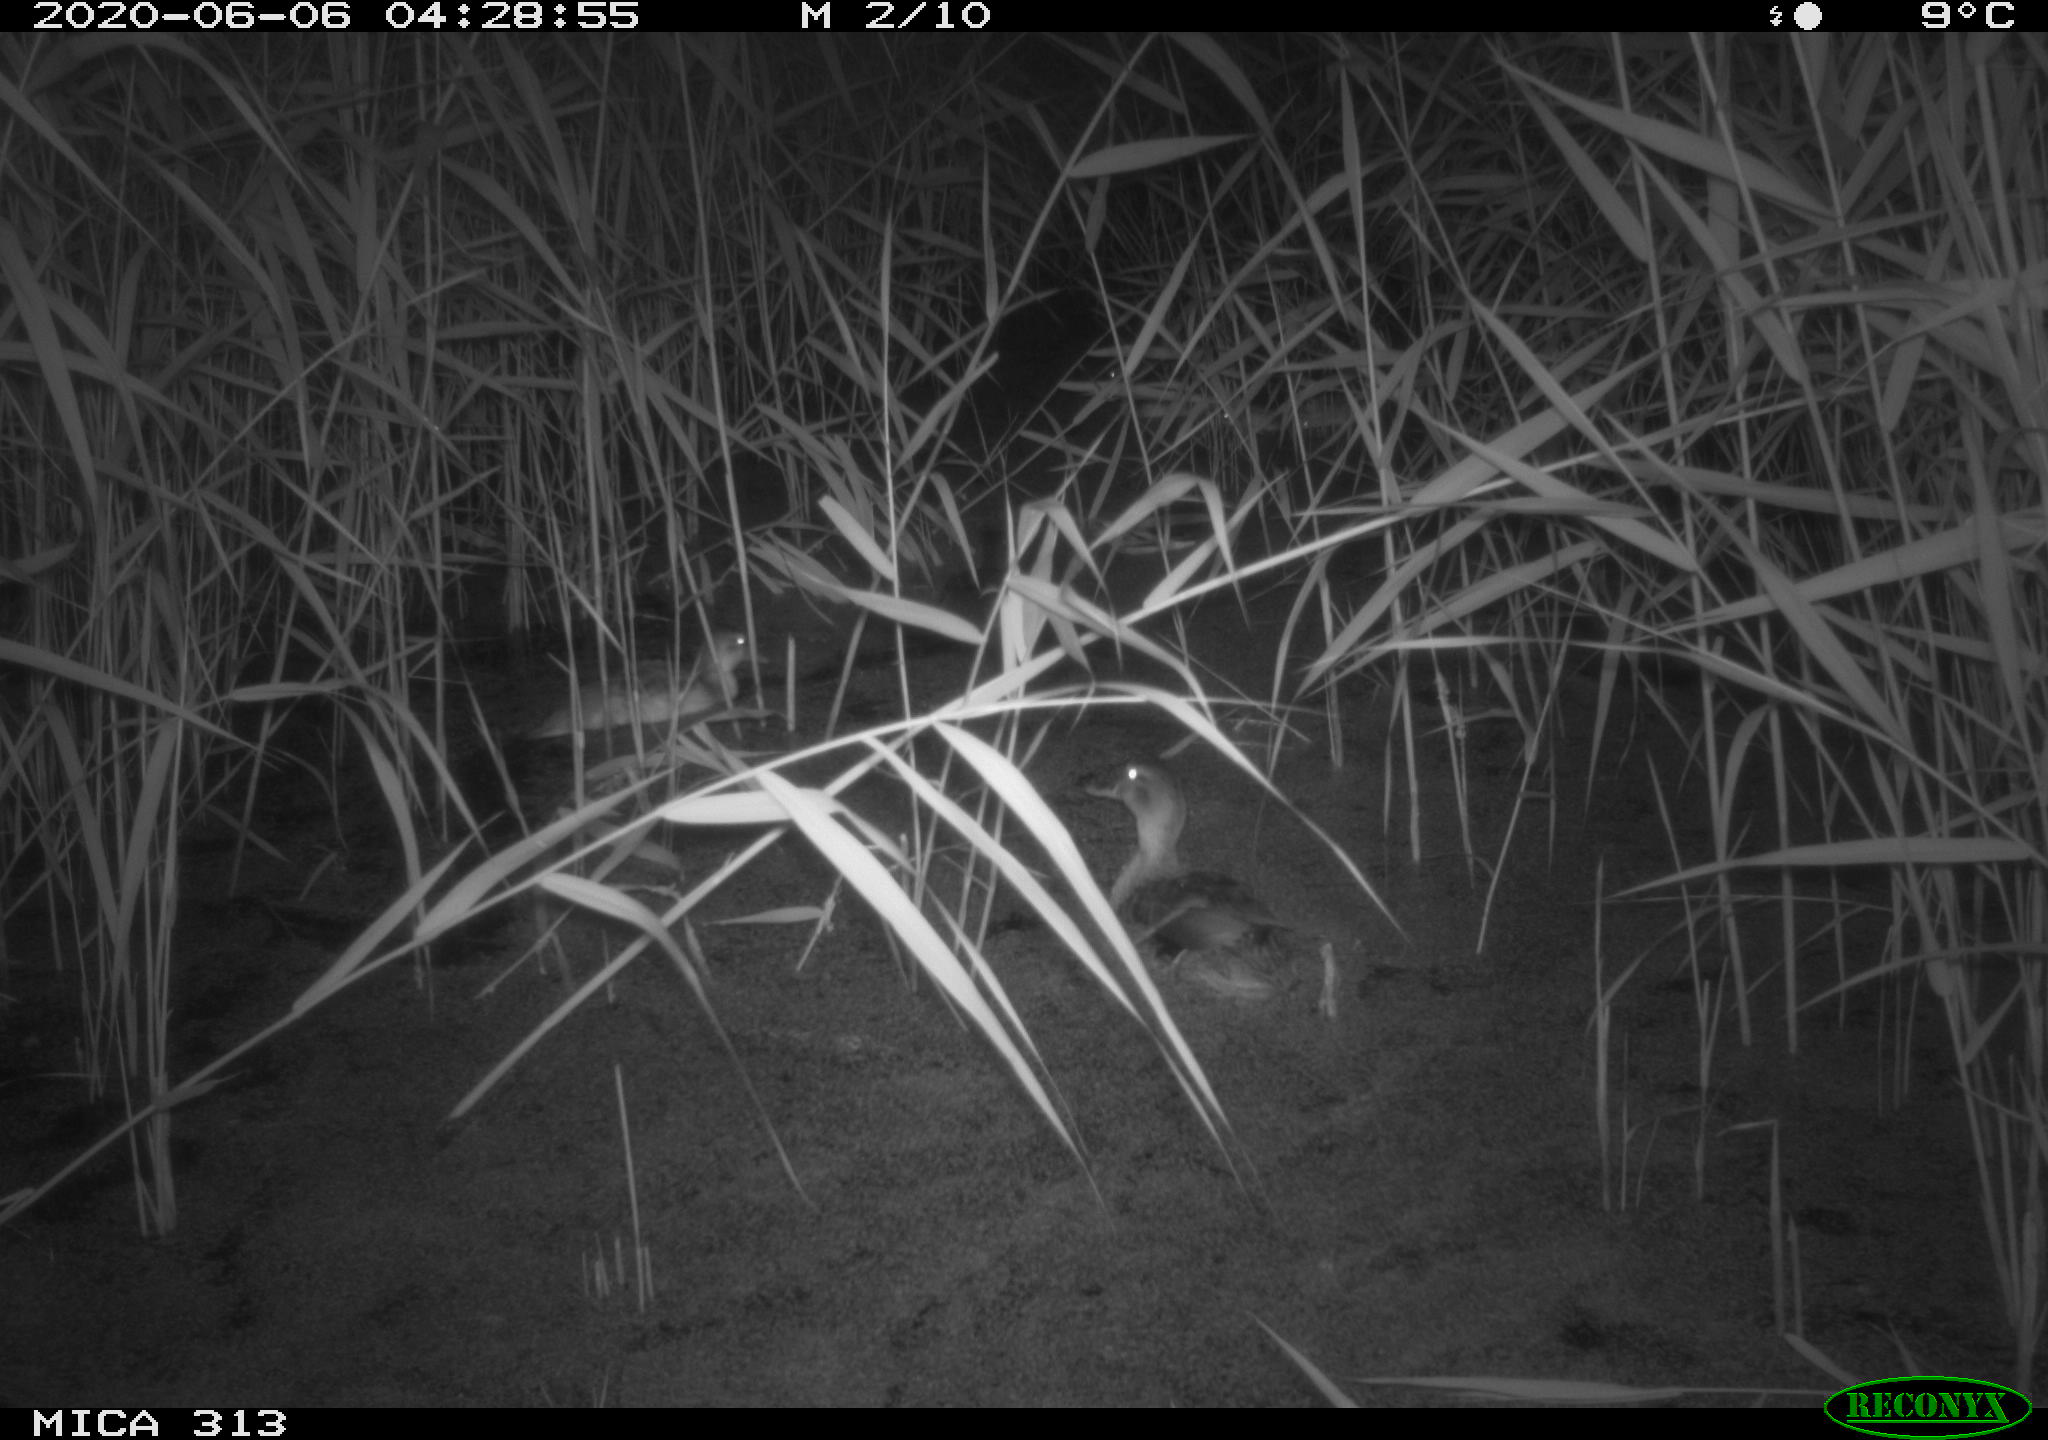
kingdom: Animalia
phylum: Chordata
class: Aves
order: Anseriformes
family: Anatidae
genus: Anas
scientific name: Anas platyrhynchos
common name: Mallard
